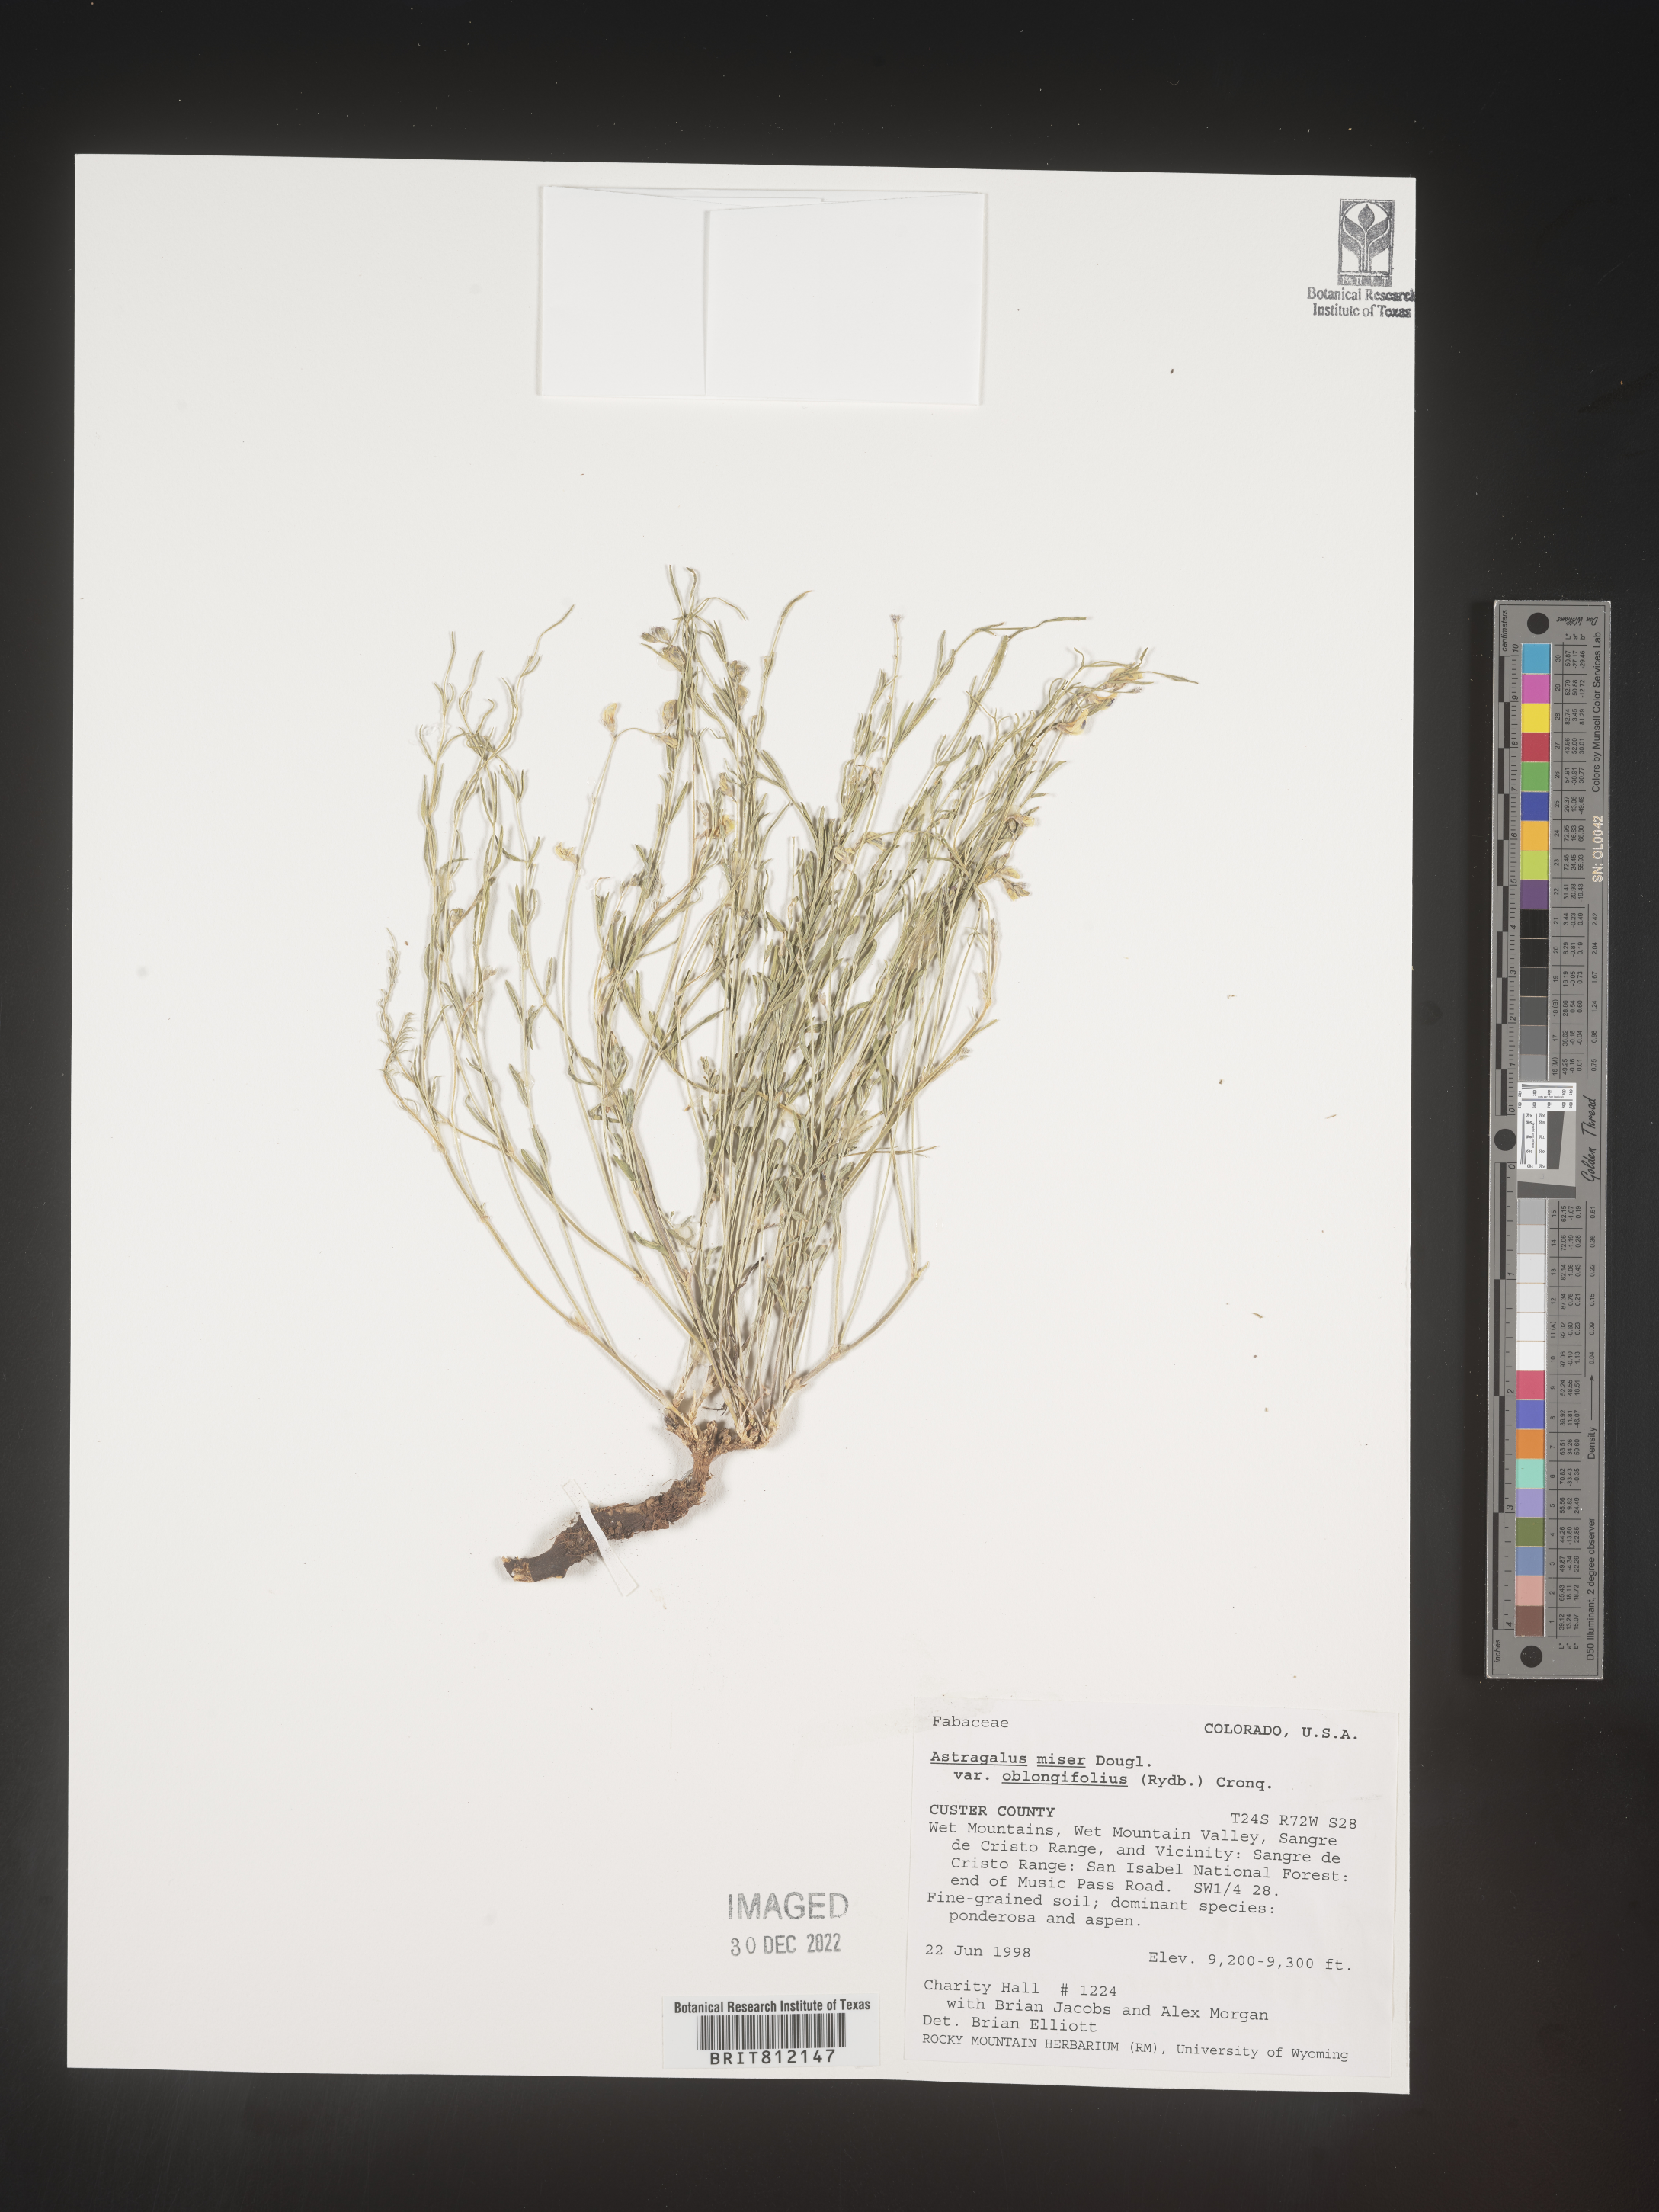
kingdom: Plantae
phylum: Tracheophyta
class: Magnoliopsida
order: Fabales
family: Fabaceae
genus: Astragalus
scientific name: Astragalus miser
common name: Timber milkvetch
